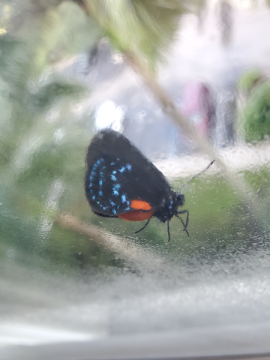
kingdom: Animalia
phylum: Arthropoda
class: Insecta
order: Lepidoptera
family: Lycaenidae
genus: Eumaeus
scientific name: Eumaeus atala
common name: Atala
